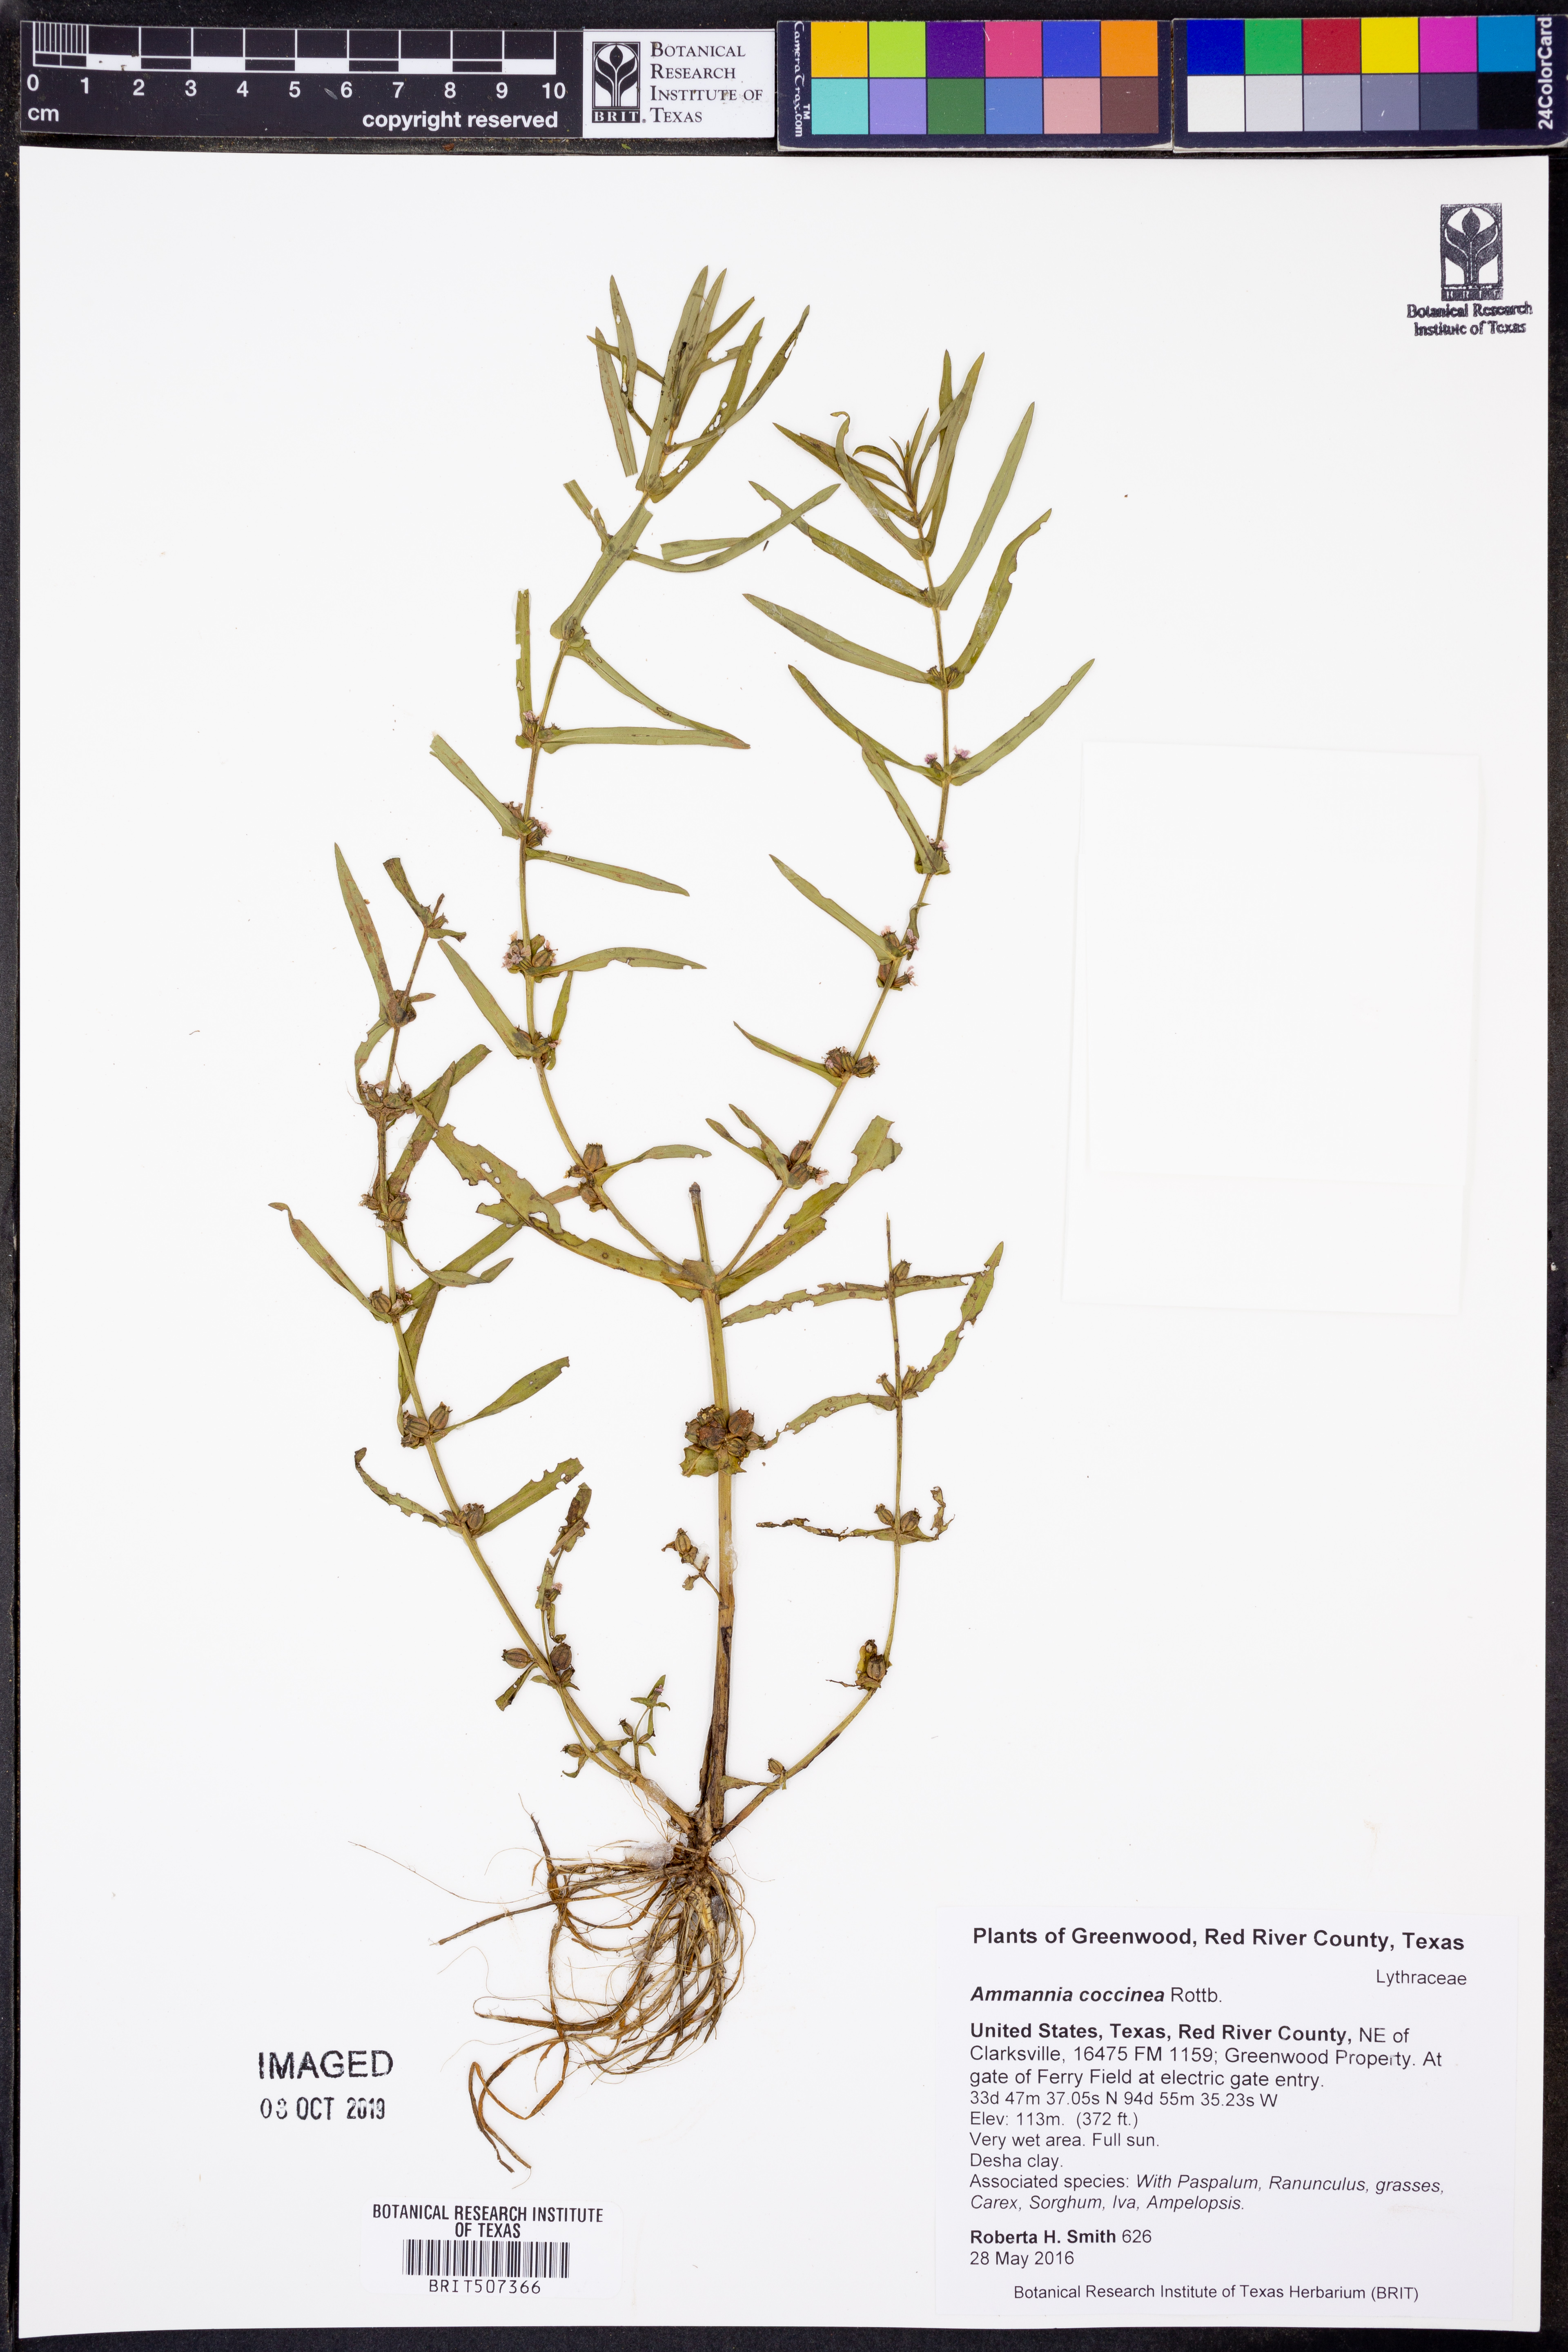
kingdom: Plantae
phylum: Tracheophyta
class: Magnoliopsida
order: Myrtales
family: Lythraceae
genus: Ammannia
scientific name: Ammannia coccinea
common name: Valley redstem
